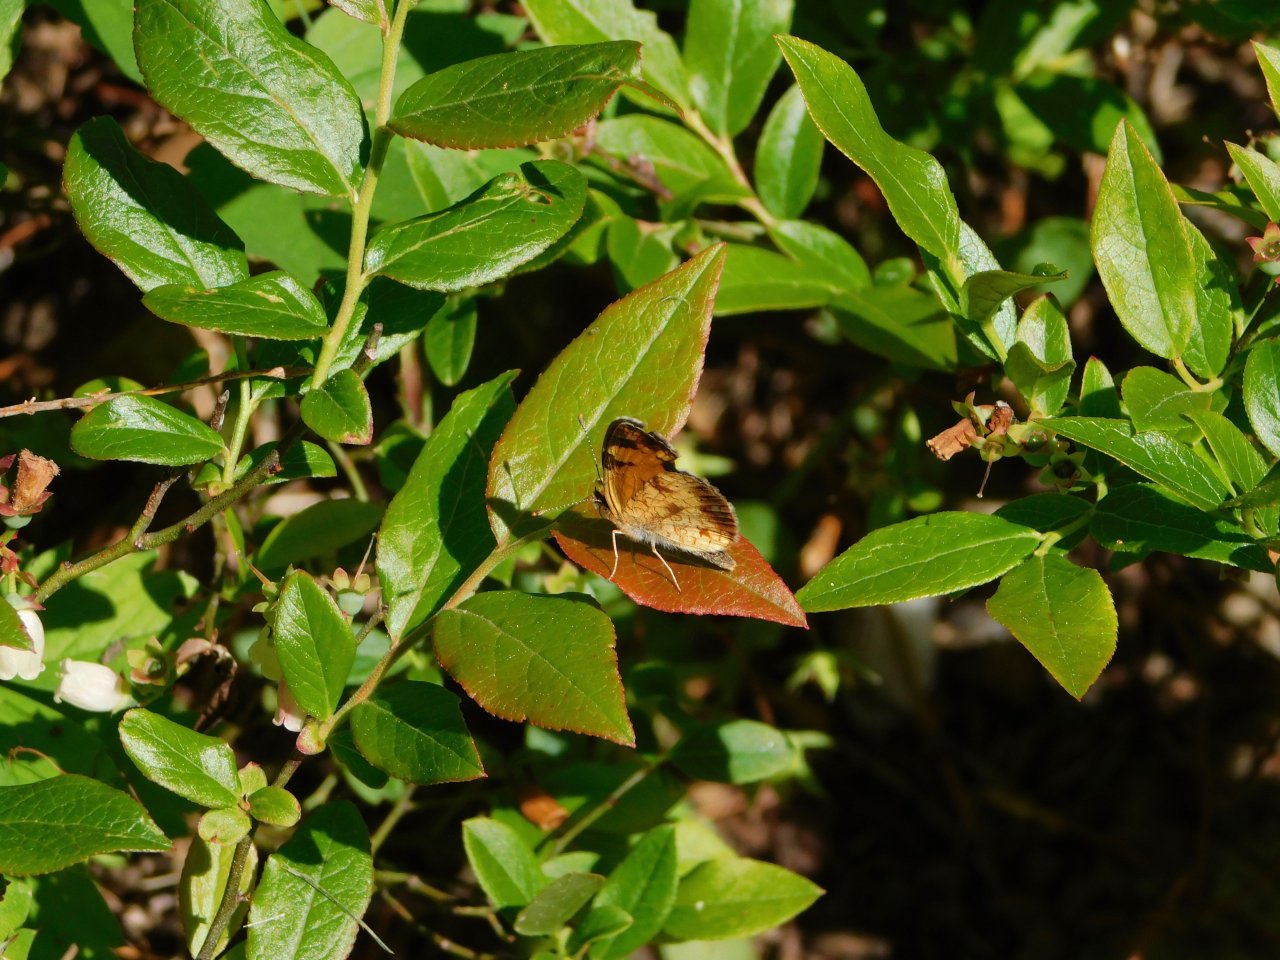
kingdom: Animalia
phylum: Arthropoda
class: Insecta
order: Lepidoptera
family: Nymphalidae
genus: Phyciodes
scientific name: Phyciodes tharos
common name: Pearl Crescent
